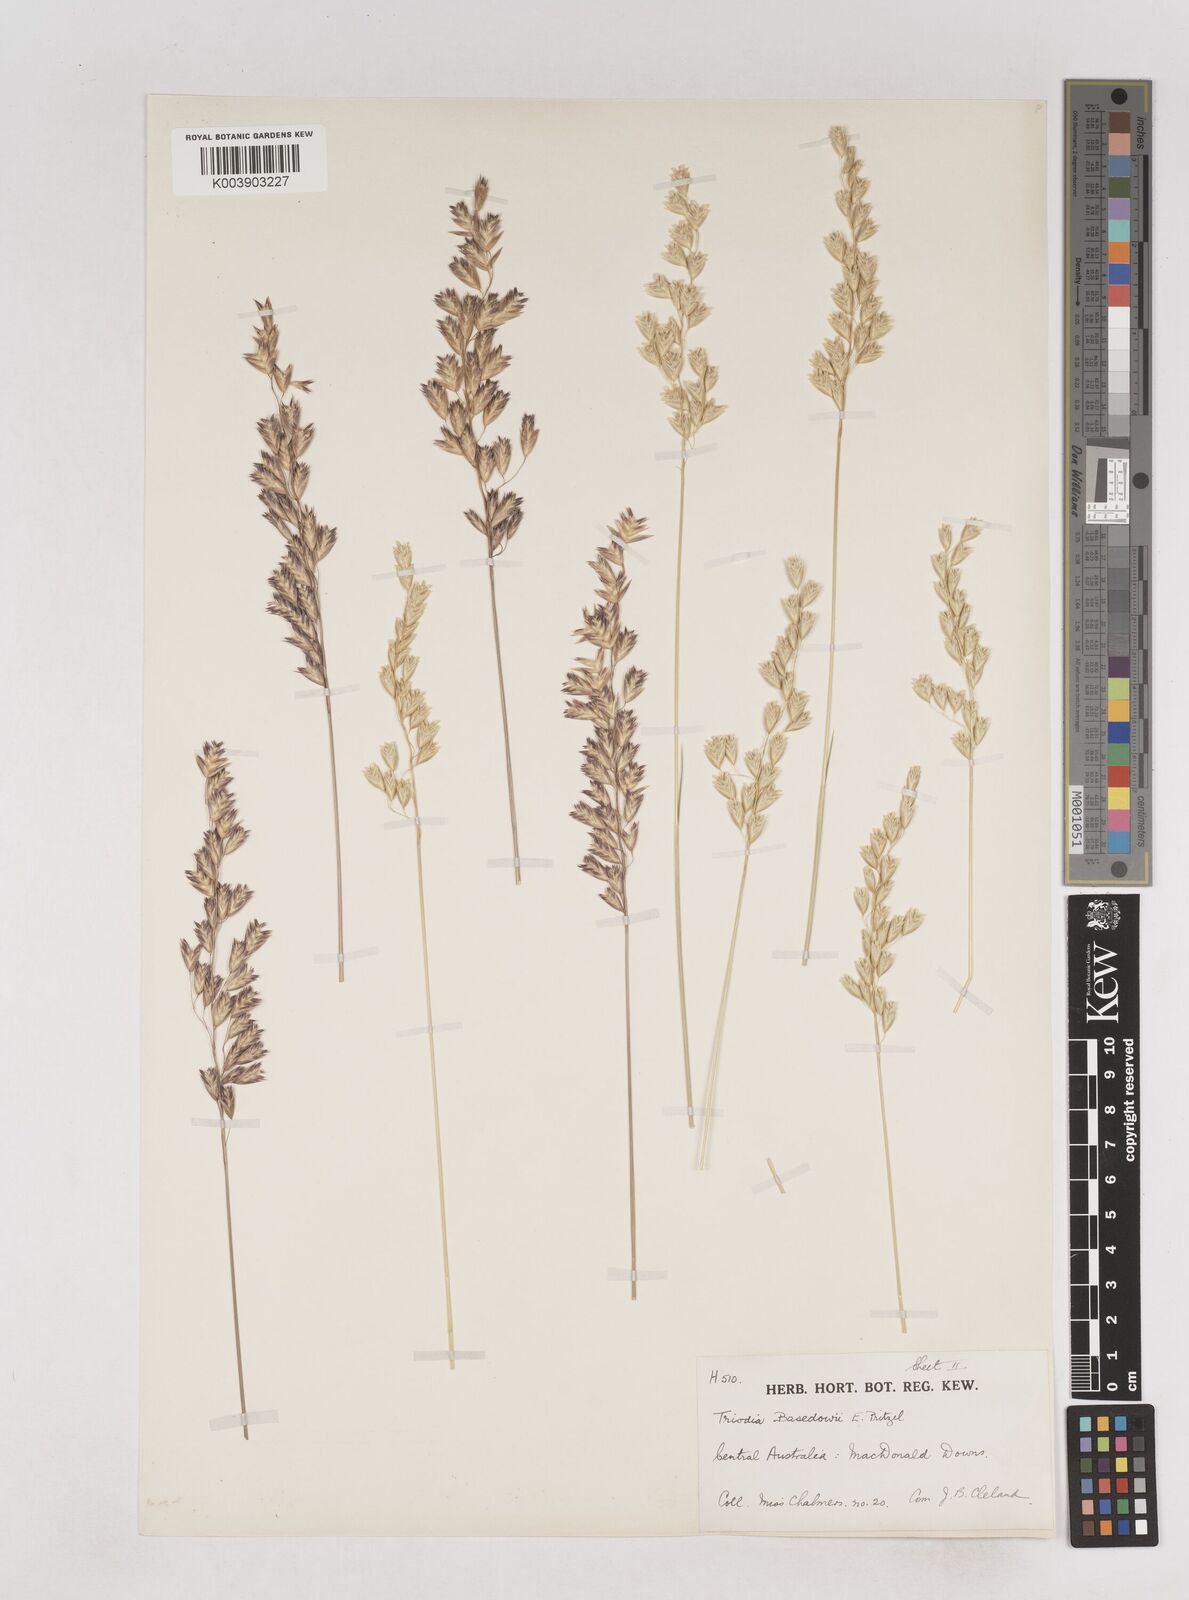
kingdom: Plantae
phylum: Tracheophyta
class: Liliopsida
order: Poales
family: Poaceae
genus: Triodia
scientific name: Triodia basedowii
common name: Hard spinifex
